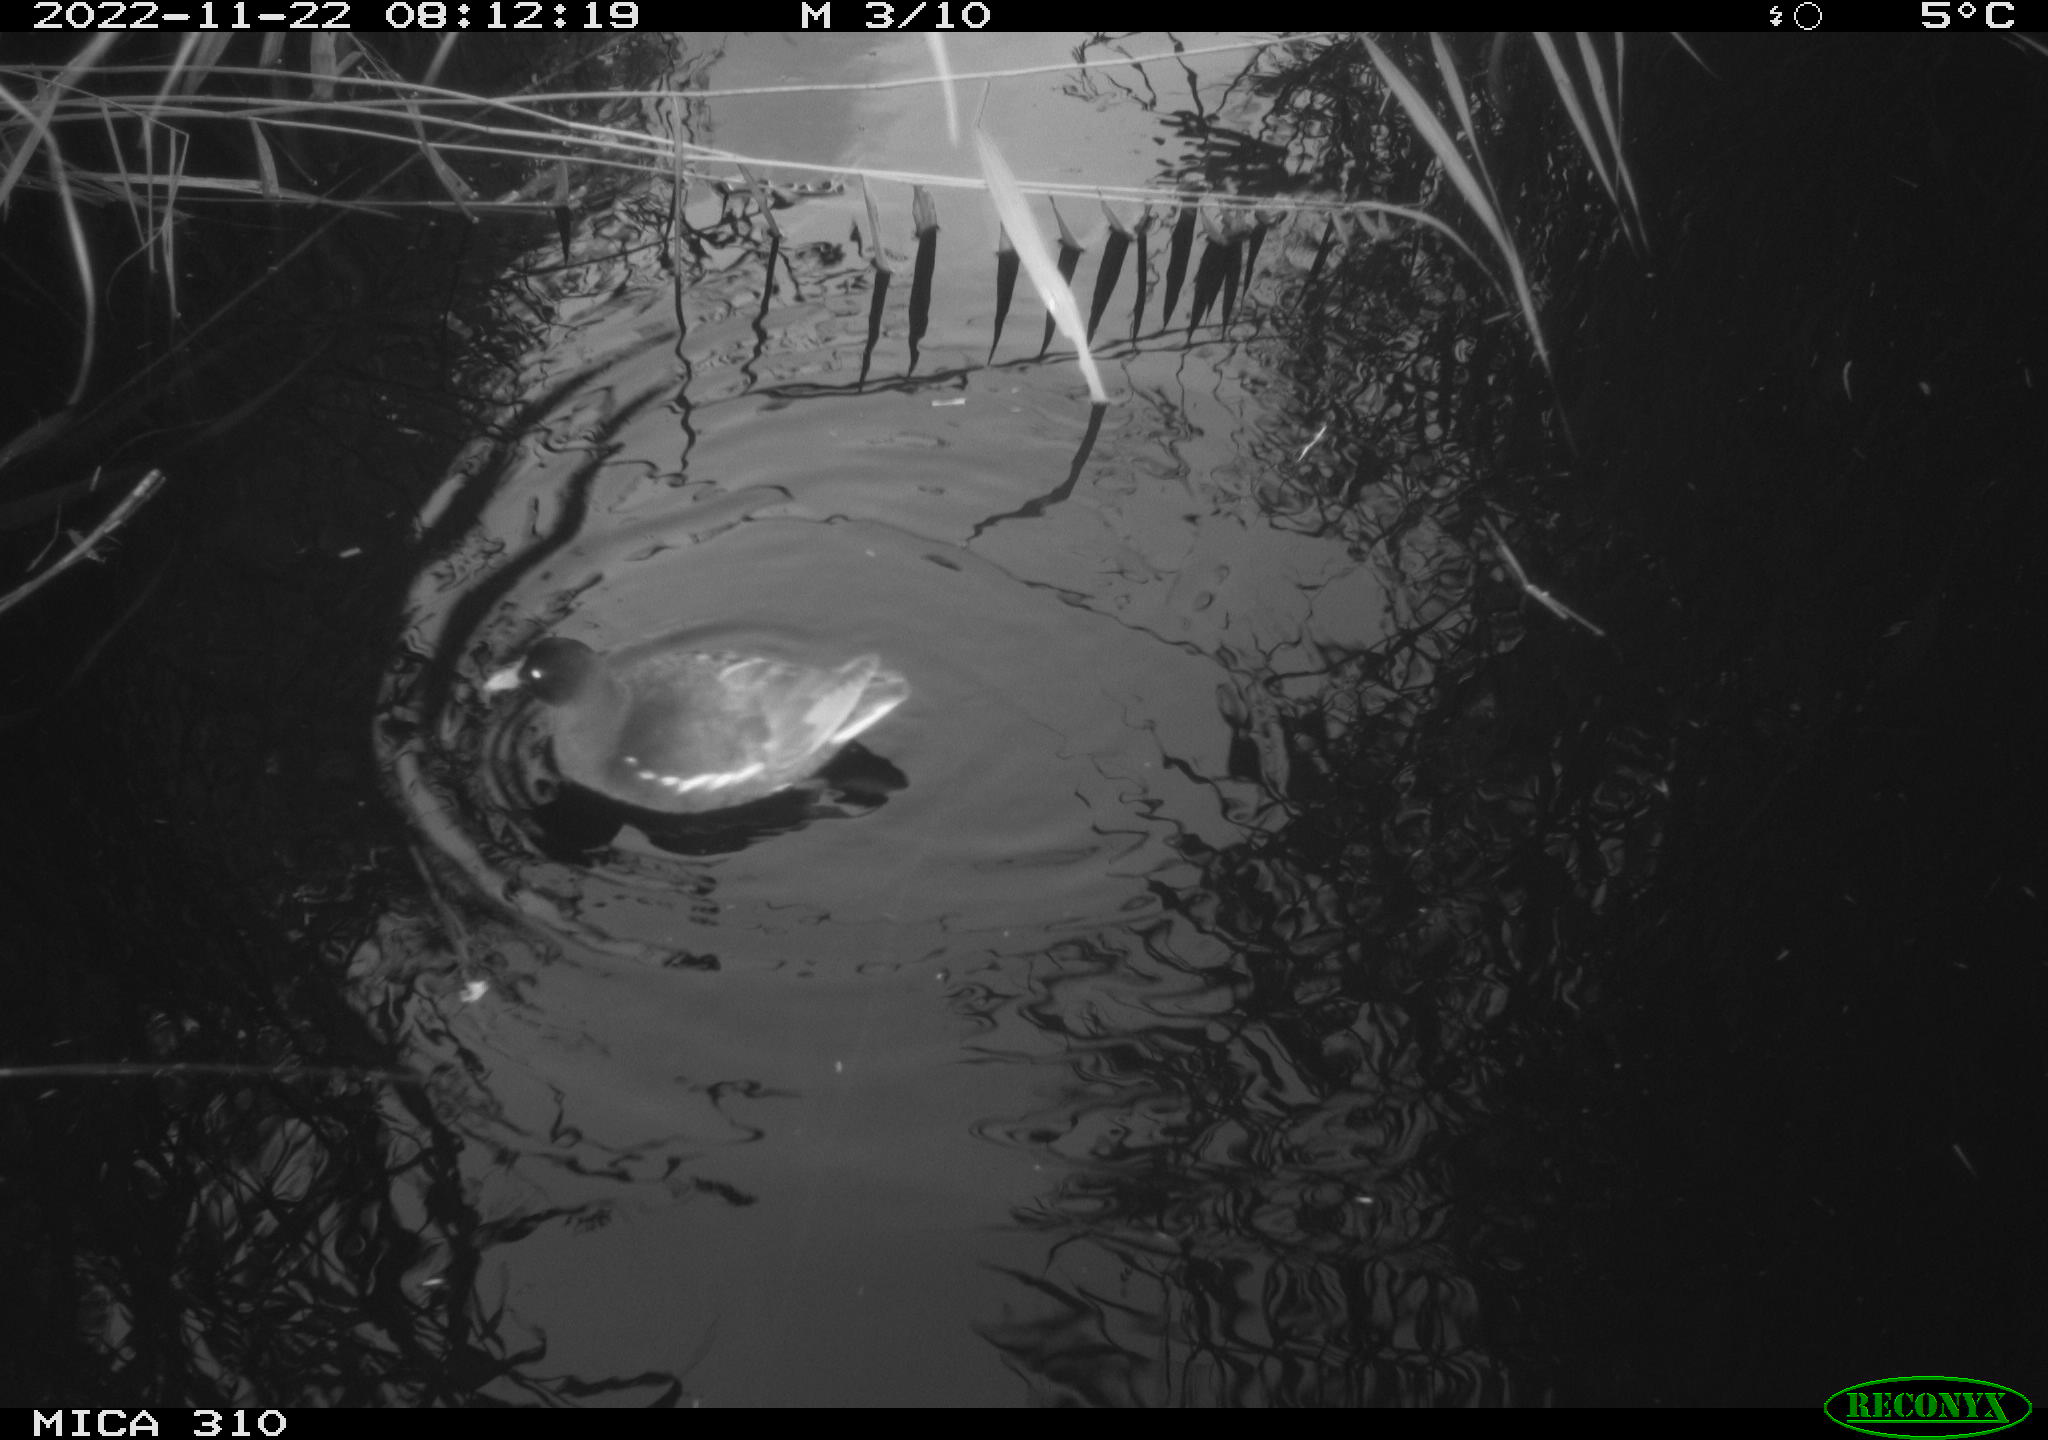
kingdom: Animalia
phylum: Chordata
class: Aves
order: Gruiformes
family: Rallidae
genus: Gallinula
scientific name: Gallinula chloropus
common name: Common moorhen
